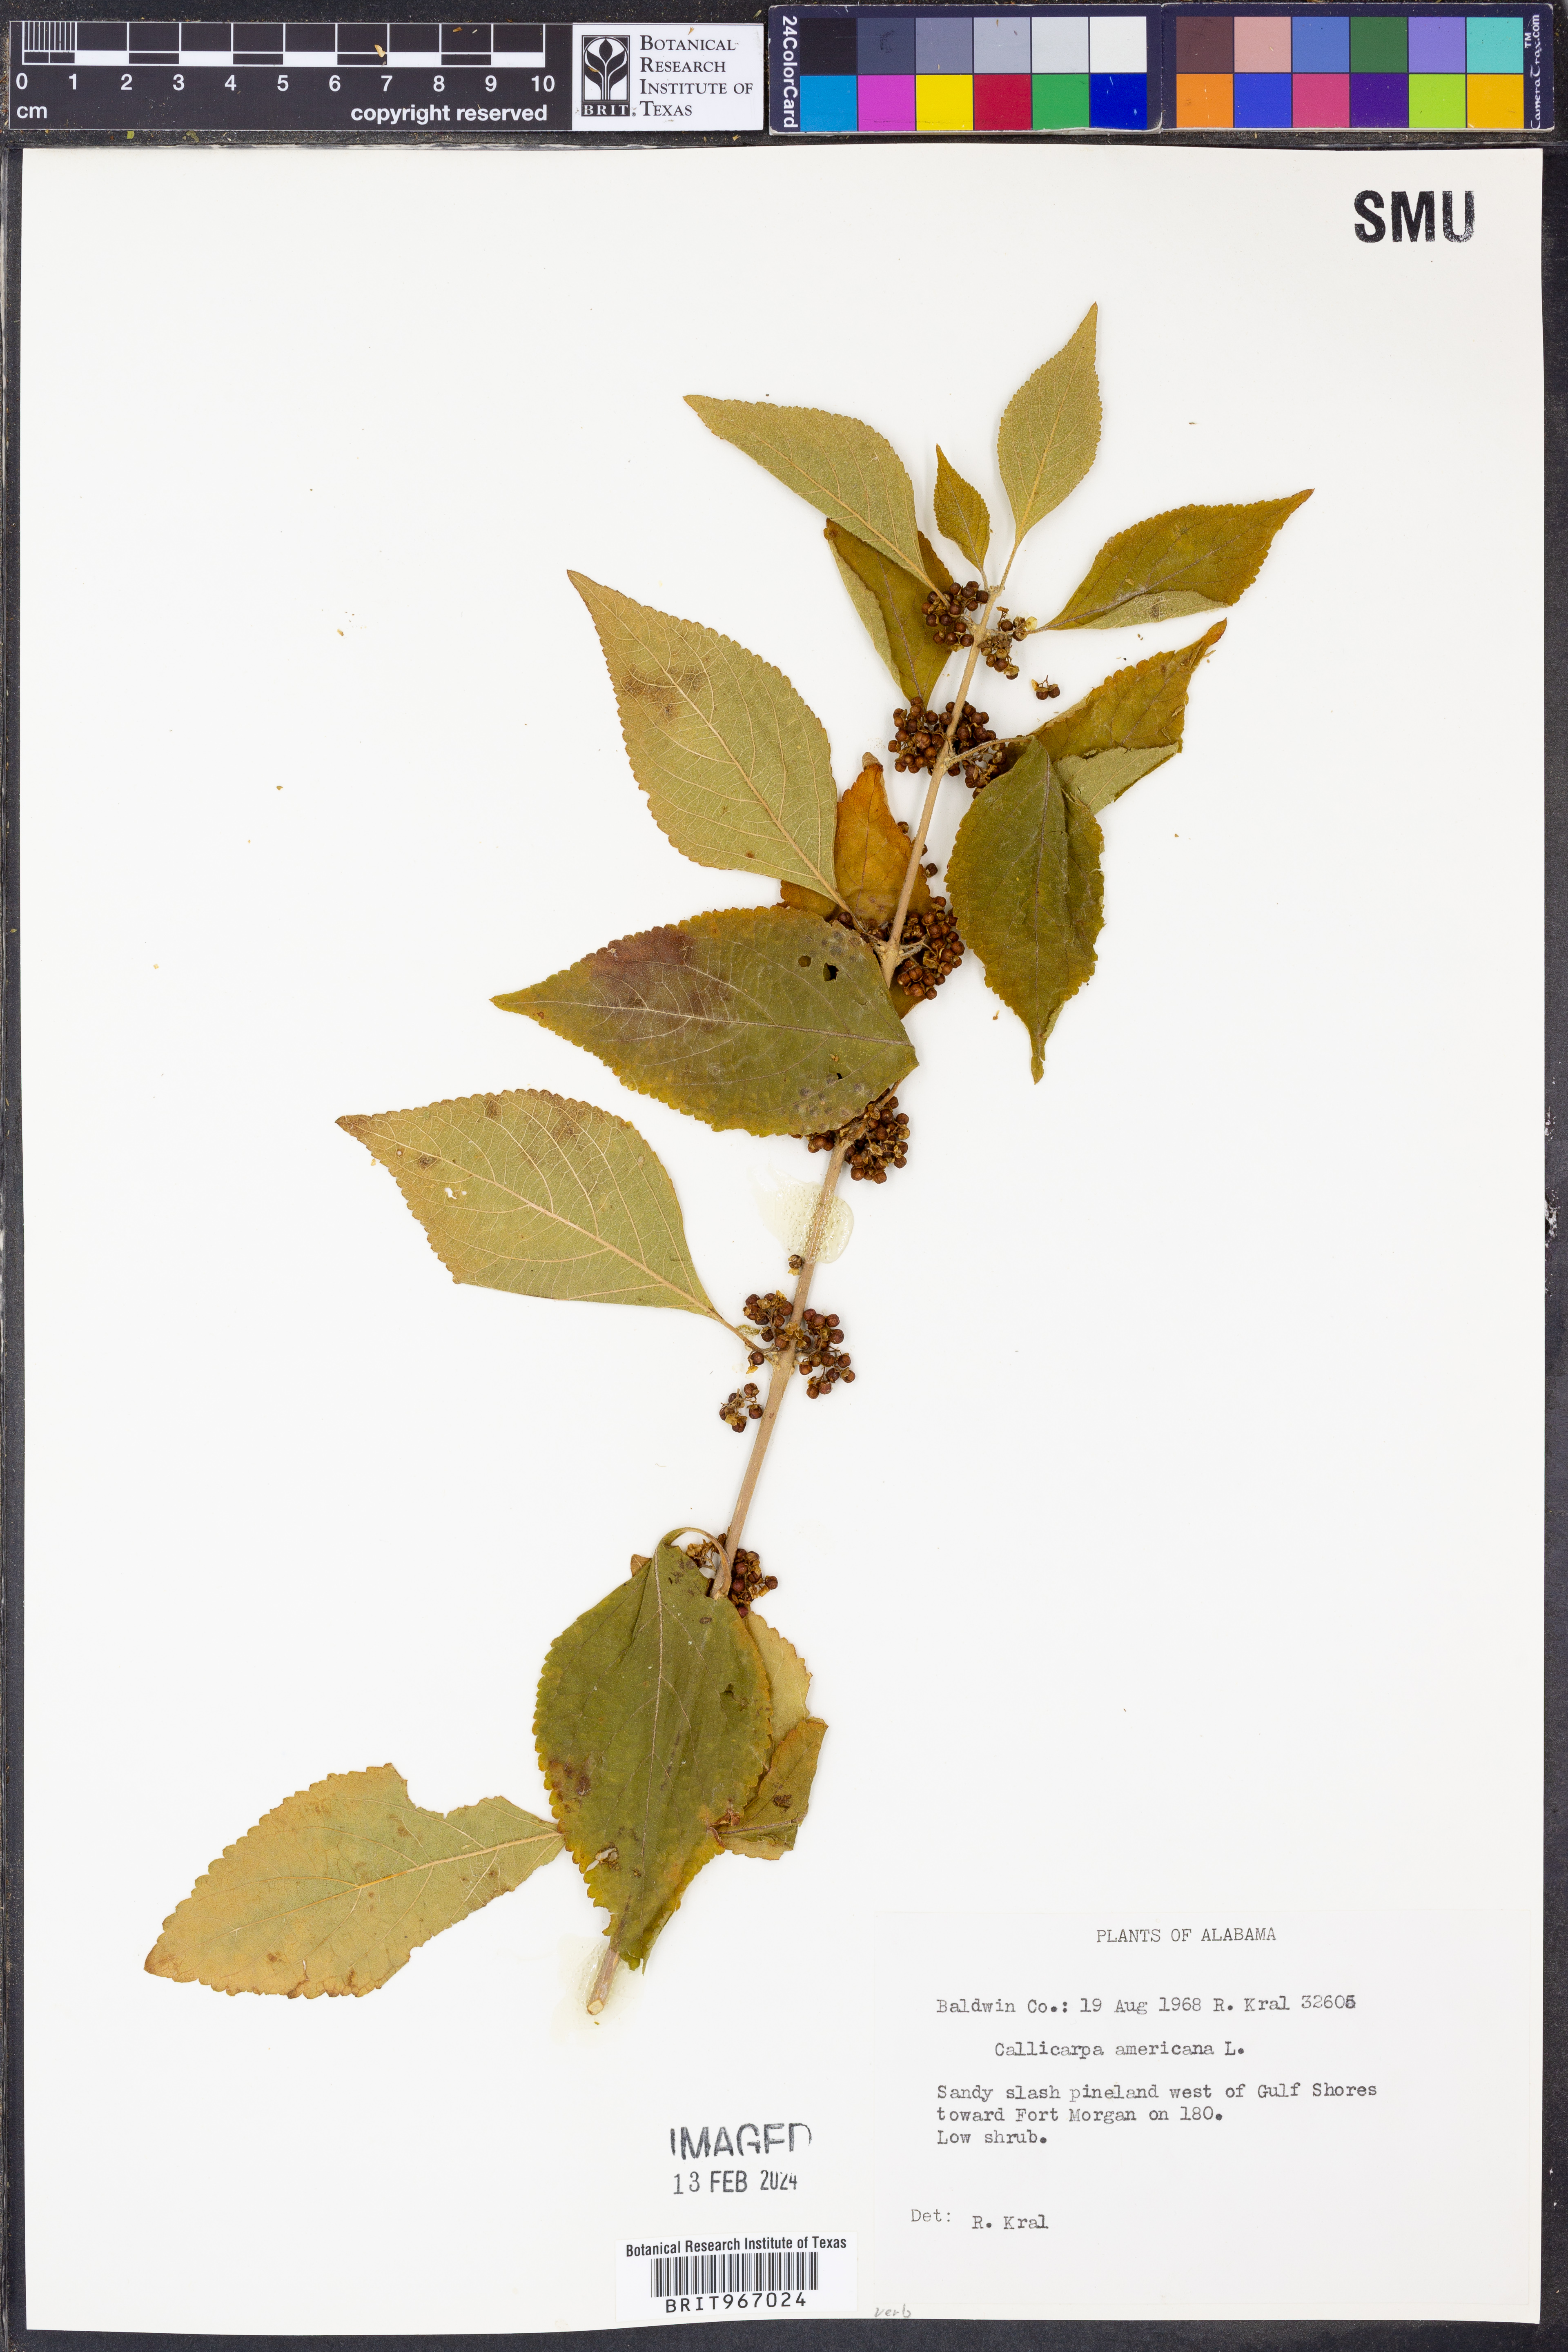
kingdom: Plantae
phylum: Tracheophyta
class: Magnoliopsida
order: Lamiales
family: Lamiaceae
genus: Callicarpa
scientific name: Callicarpa americana
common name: American beautyberry
